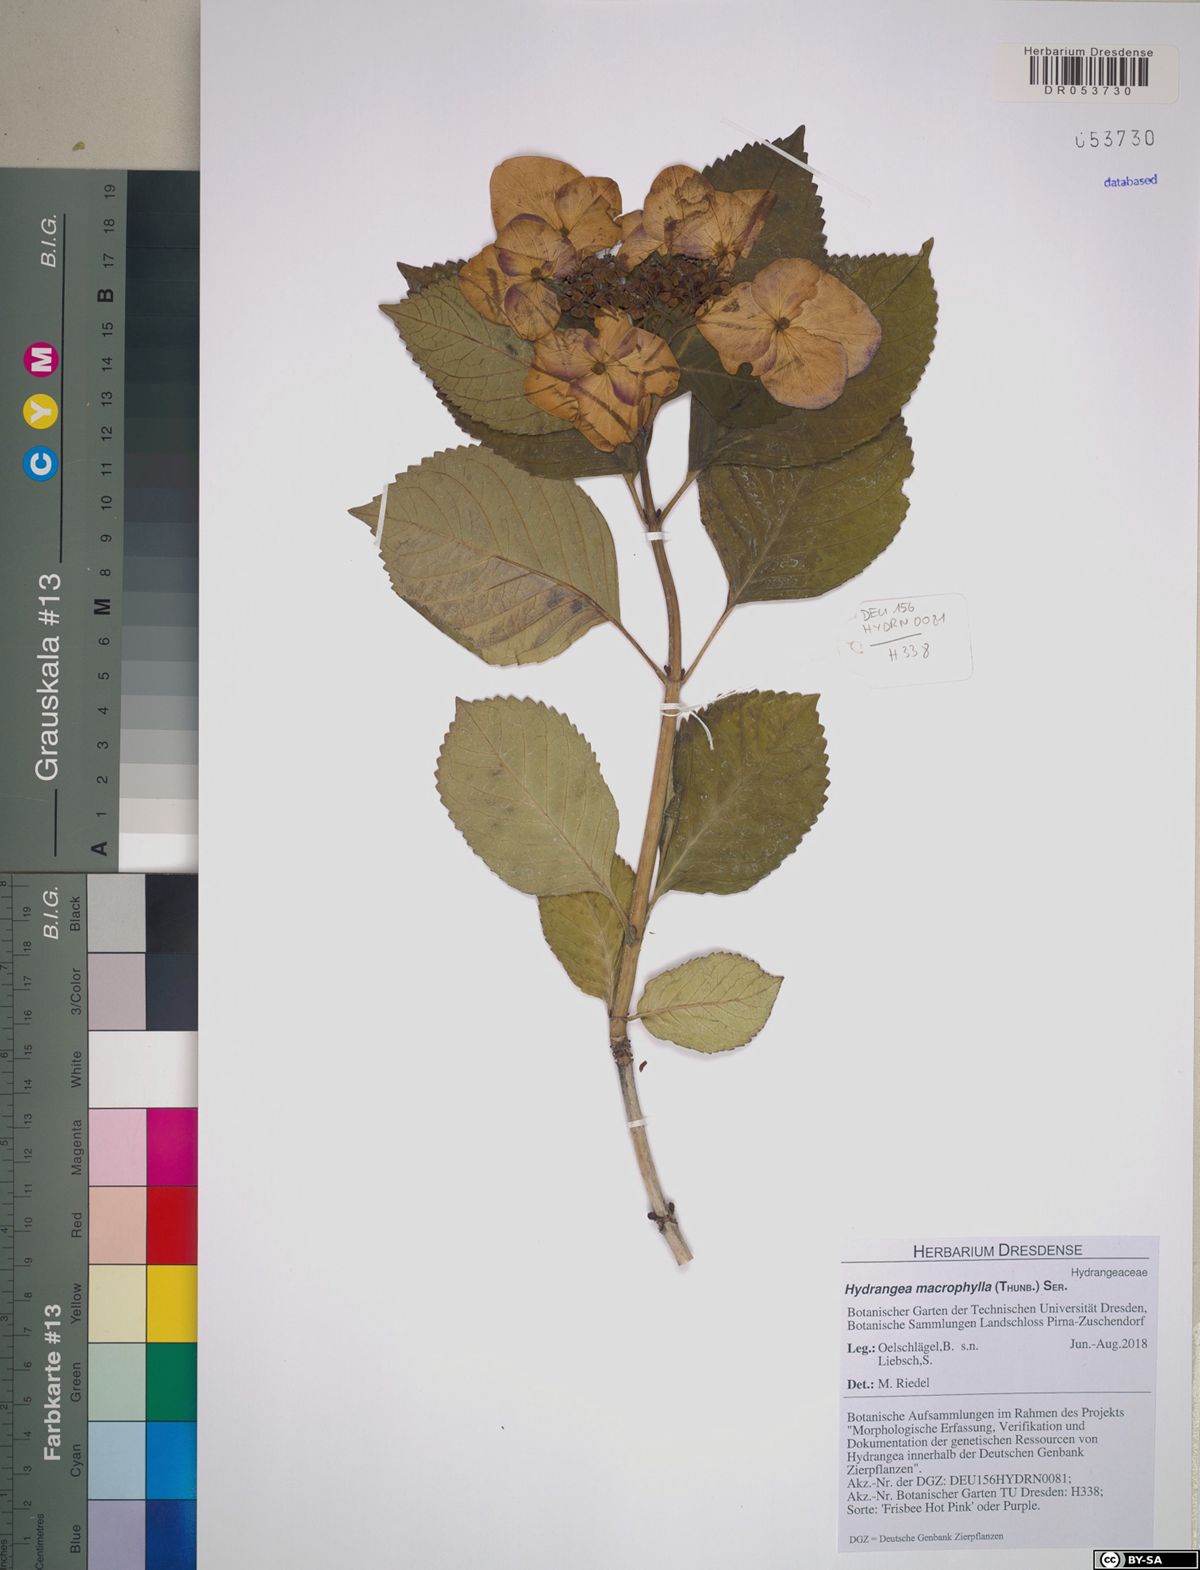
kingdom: Plantae
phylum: Tracheophyta
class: Magnoliopsida
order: Cornales
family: Hydrangeaceae
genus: Hydrangea
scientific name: Hydrangea macrophylla
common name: Hydrangea
